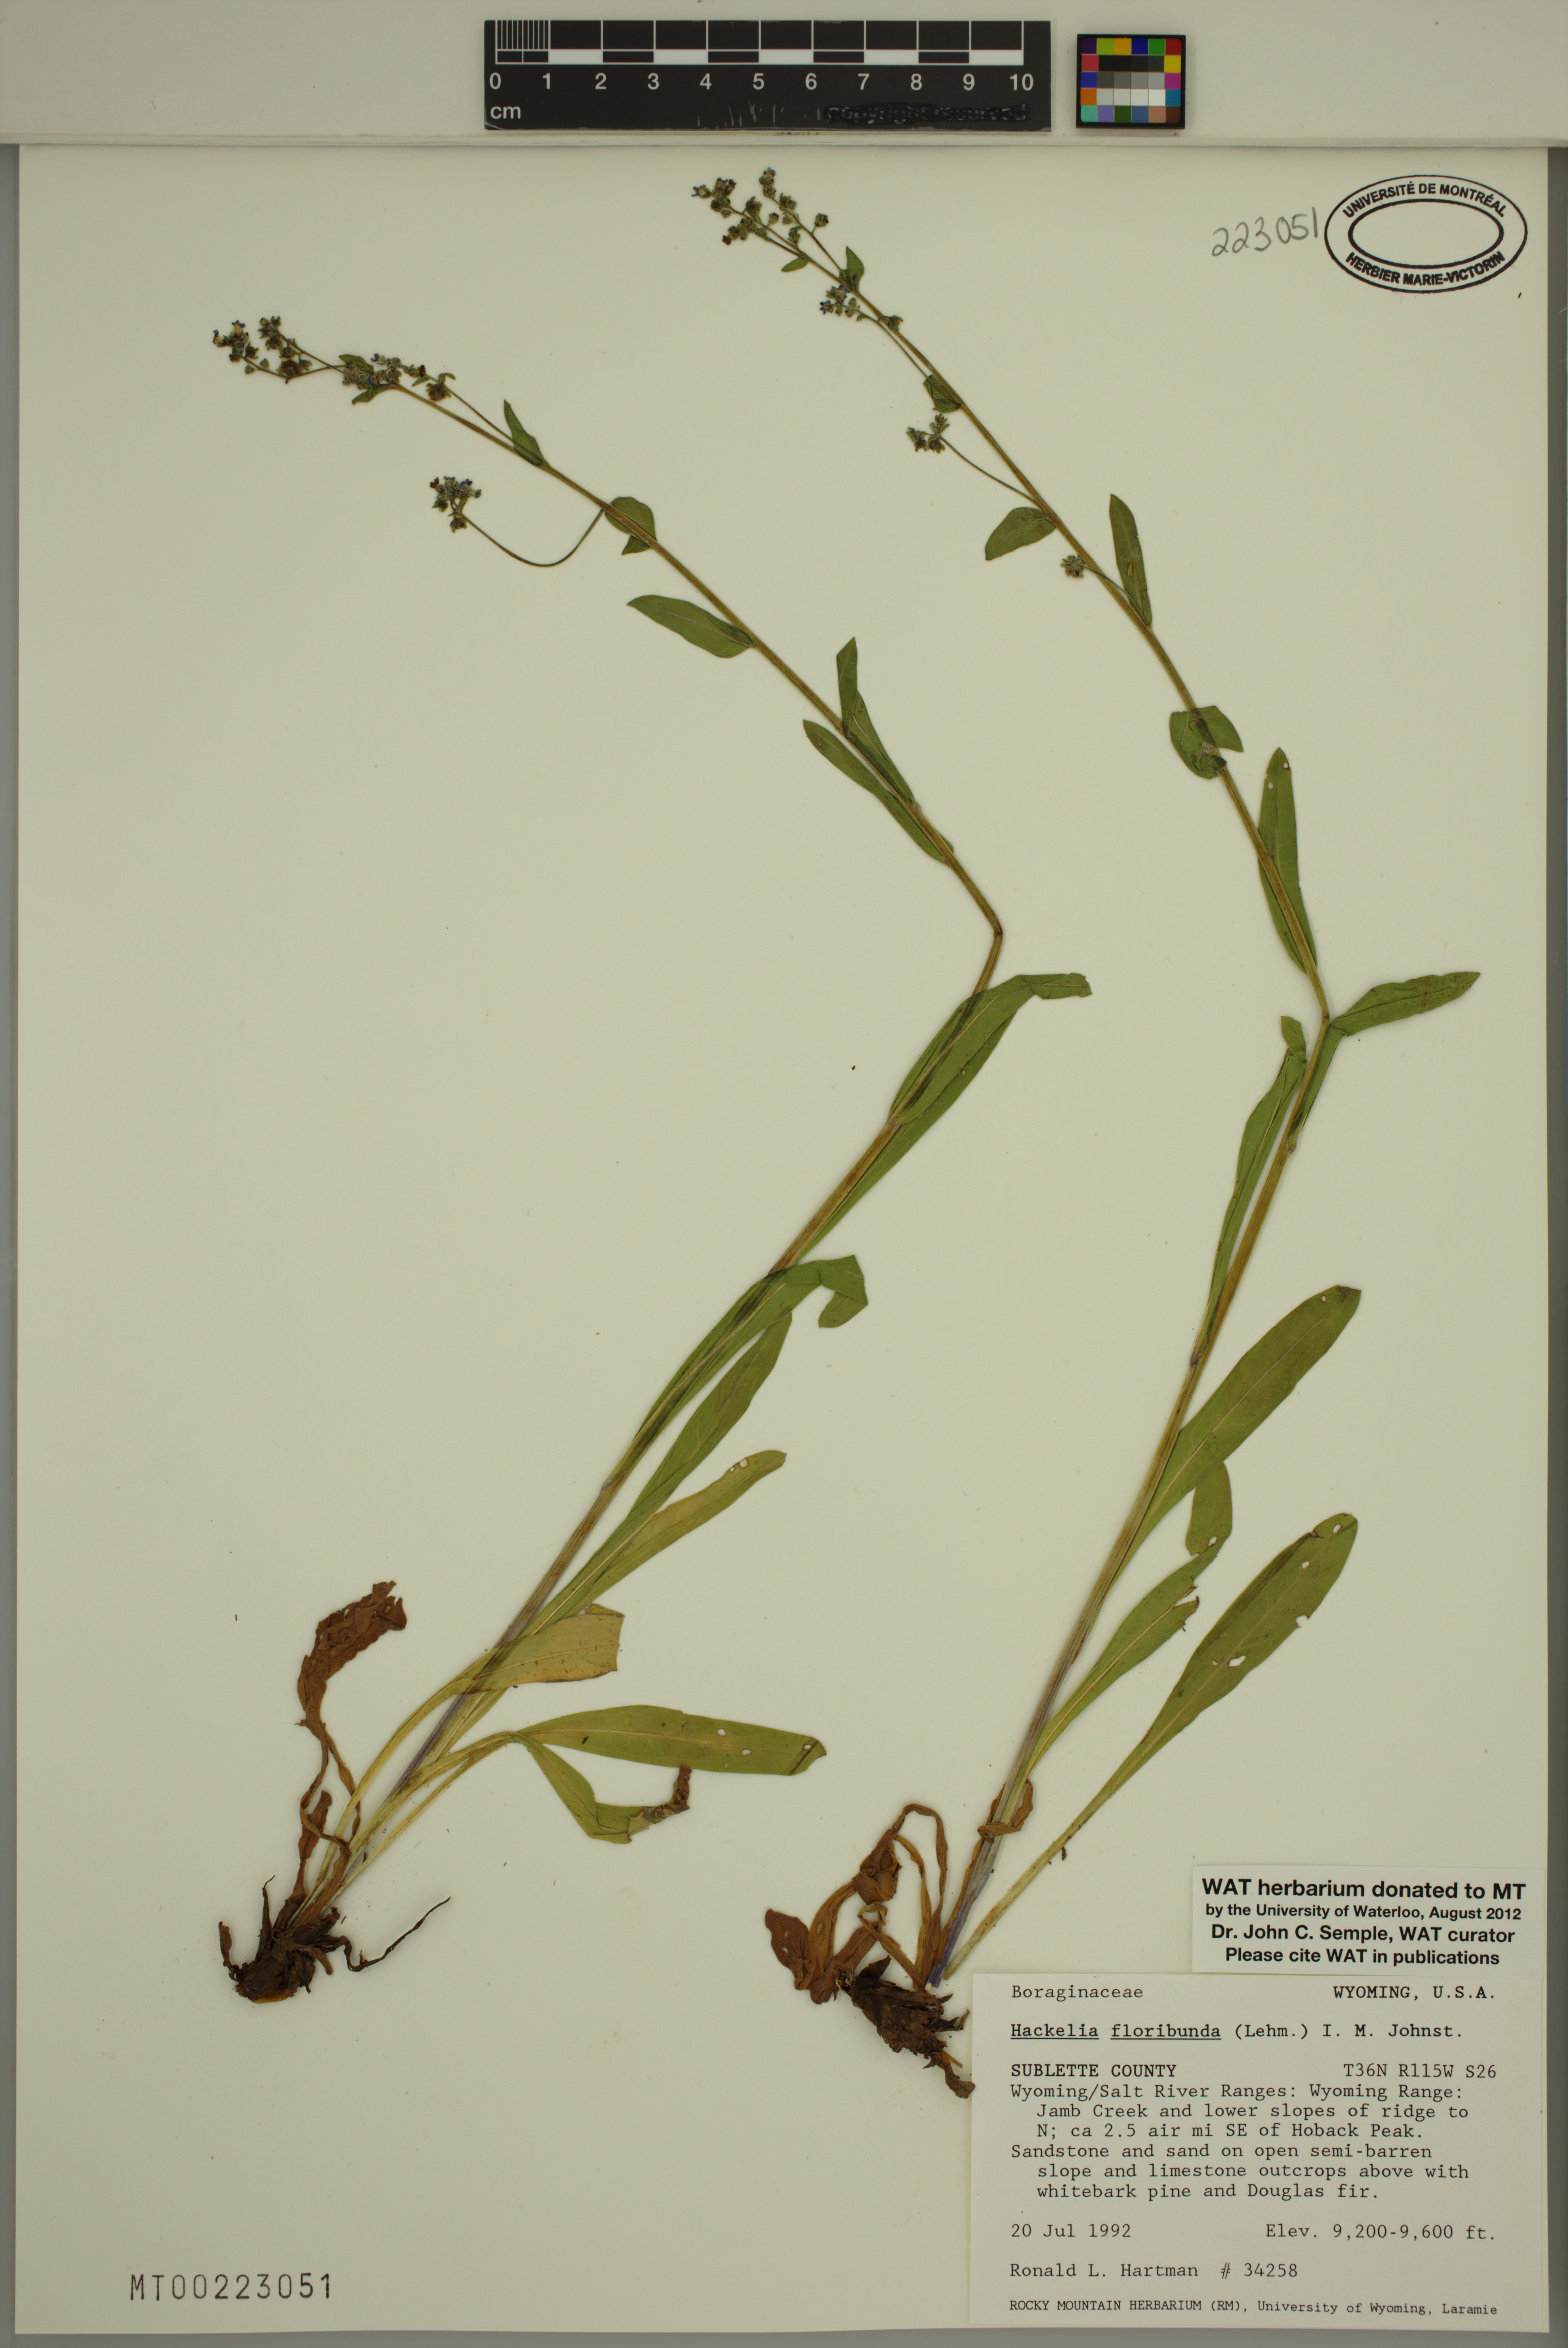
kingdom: Plantae
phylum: Tracheophyta
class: Magnoliopsida
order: Boraginales
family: Boraginaceae
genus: Hackelia
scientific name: Hackelia floribunda
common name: Large-flowered stickseed
